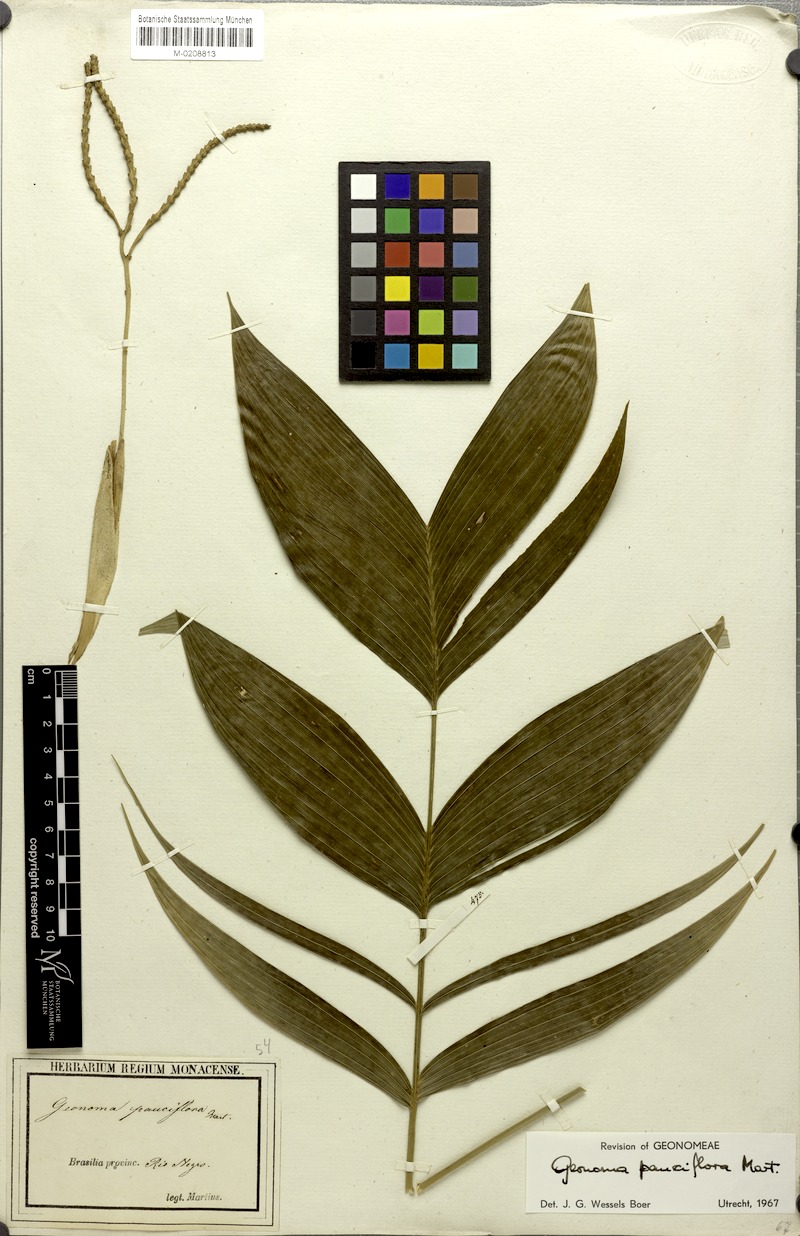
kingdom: Plantae
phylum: Tracheophyta
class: Liliopsida
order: Arecales
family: Arecaceae
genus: Geonoma
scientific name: Geonoma pauciflora
